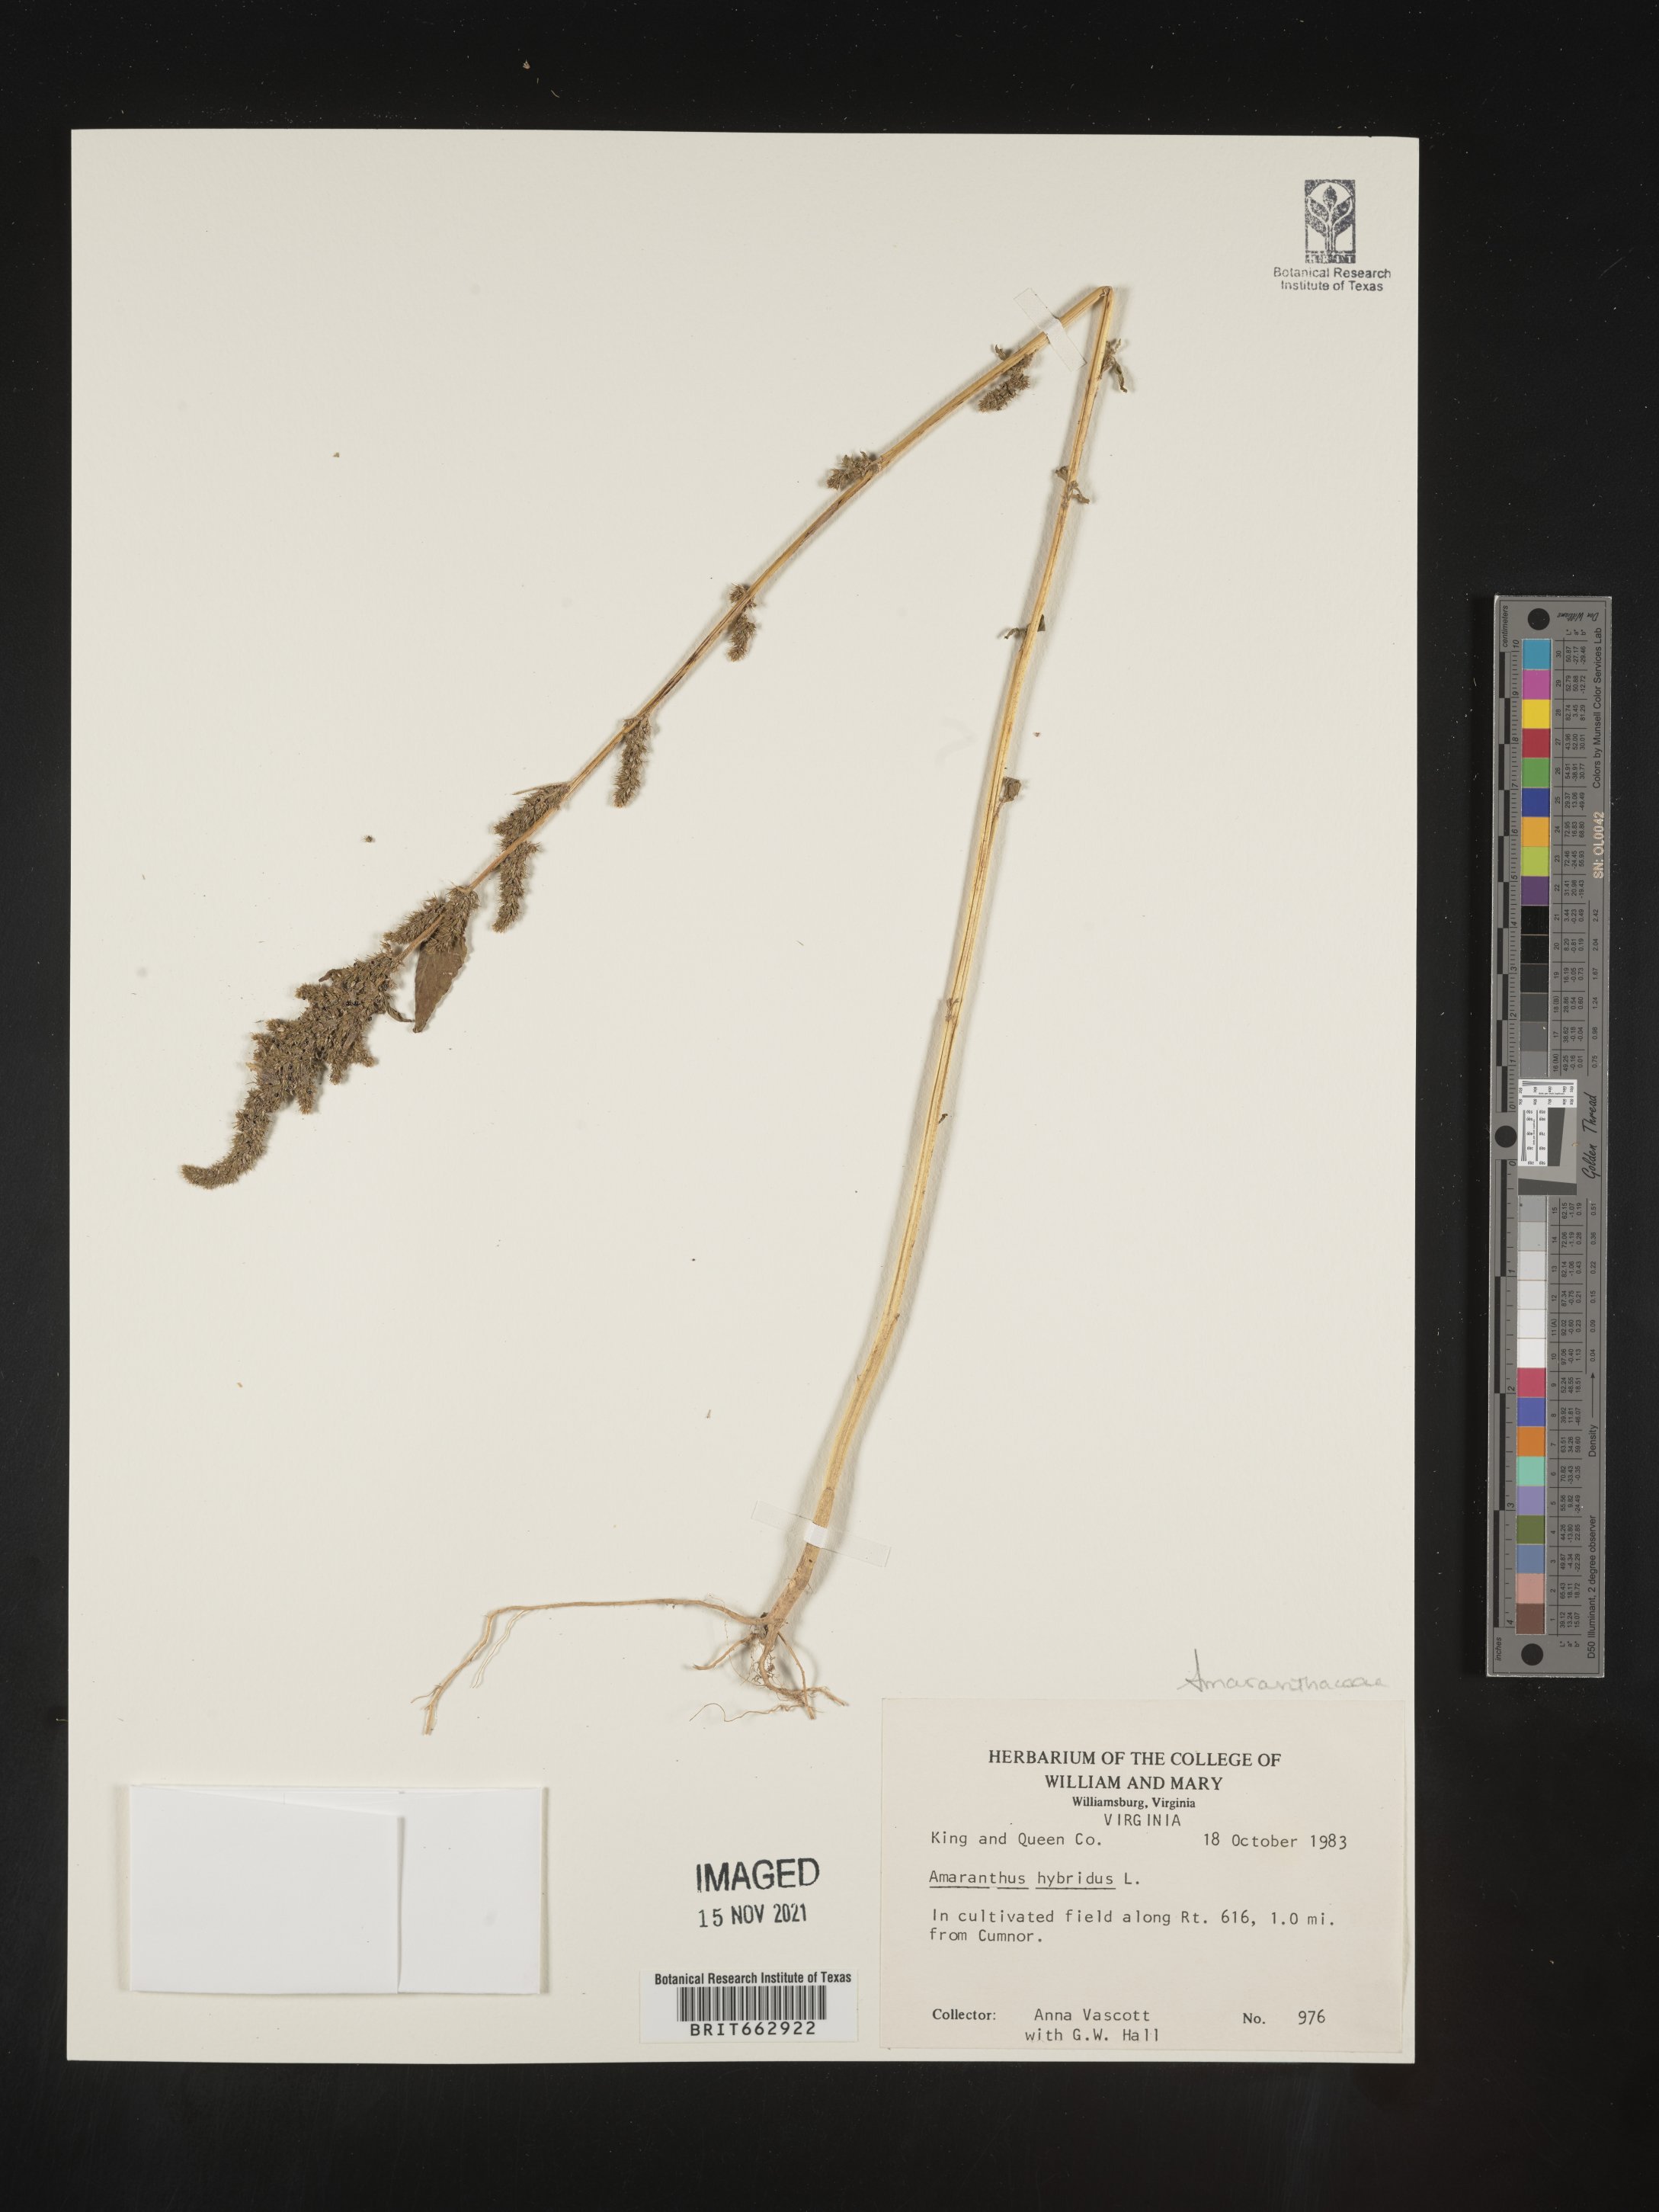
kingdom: Plantae
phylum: Tracheophyta
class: Magnoliopsida
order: Caryophyllales
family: Amaranthaceae
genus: Amaranthus
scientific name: Amaranthus hybridus
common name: Green amaranth
